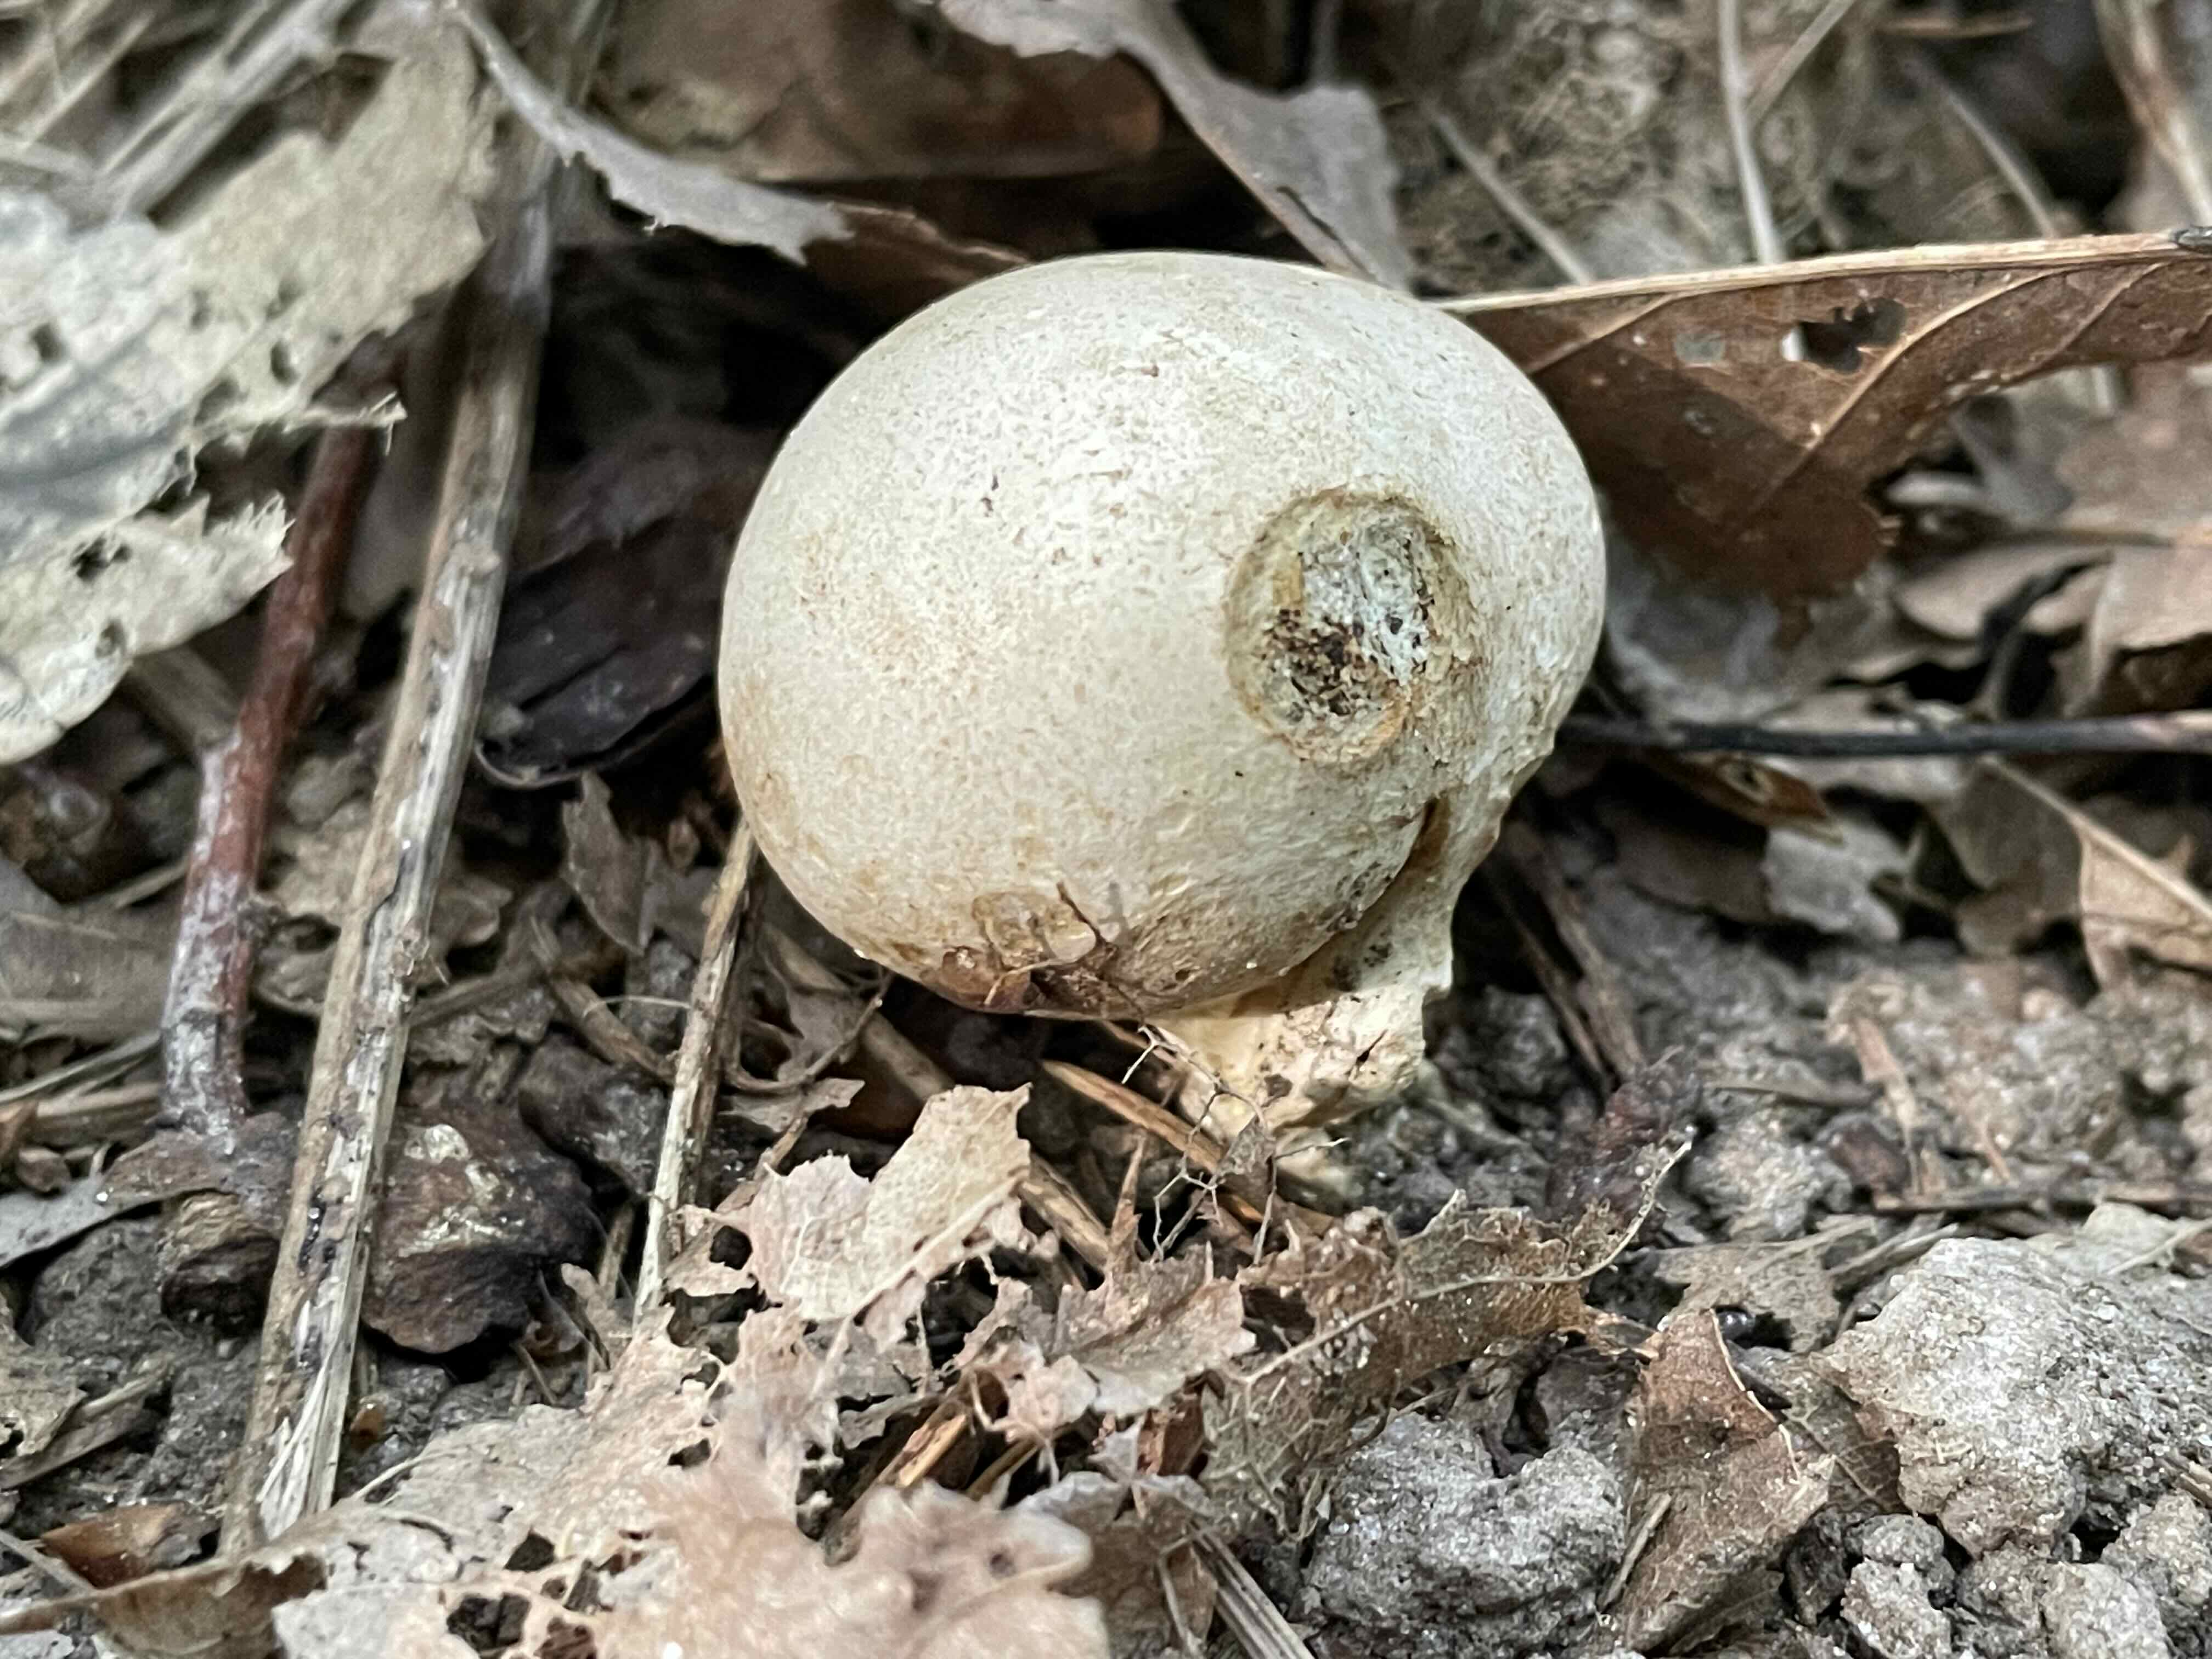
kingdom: Fungi
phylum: Basidiomycota
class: Agaricomycetes
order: Boletales
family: Sclerodermataceae
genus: Scleroderma
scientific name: Scleroderma
